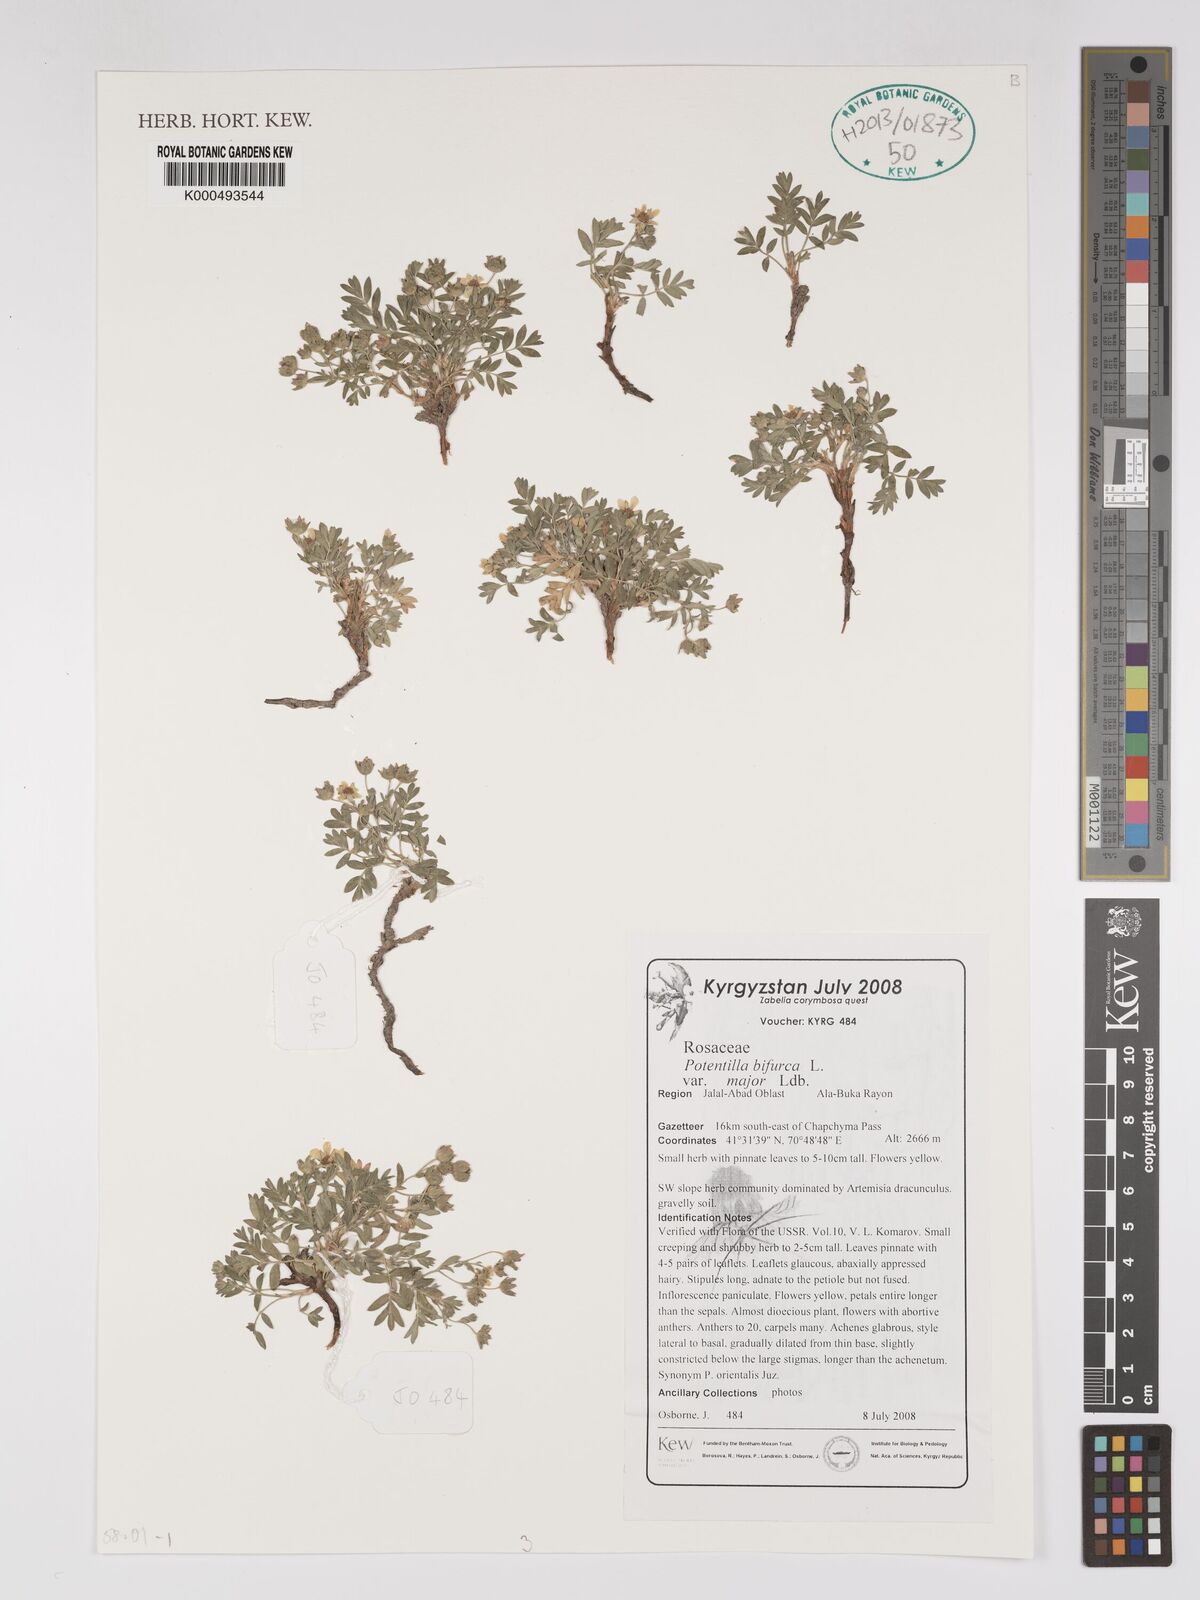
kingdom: Plantae
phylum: Tracheophyta
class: Magnoliopsida
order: Rosales
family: Rosaceae
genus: Sibbaldianthe
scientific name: Sibbaldianthe bifurca
